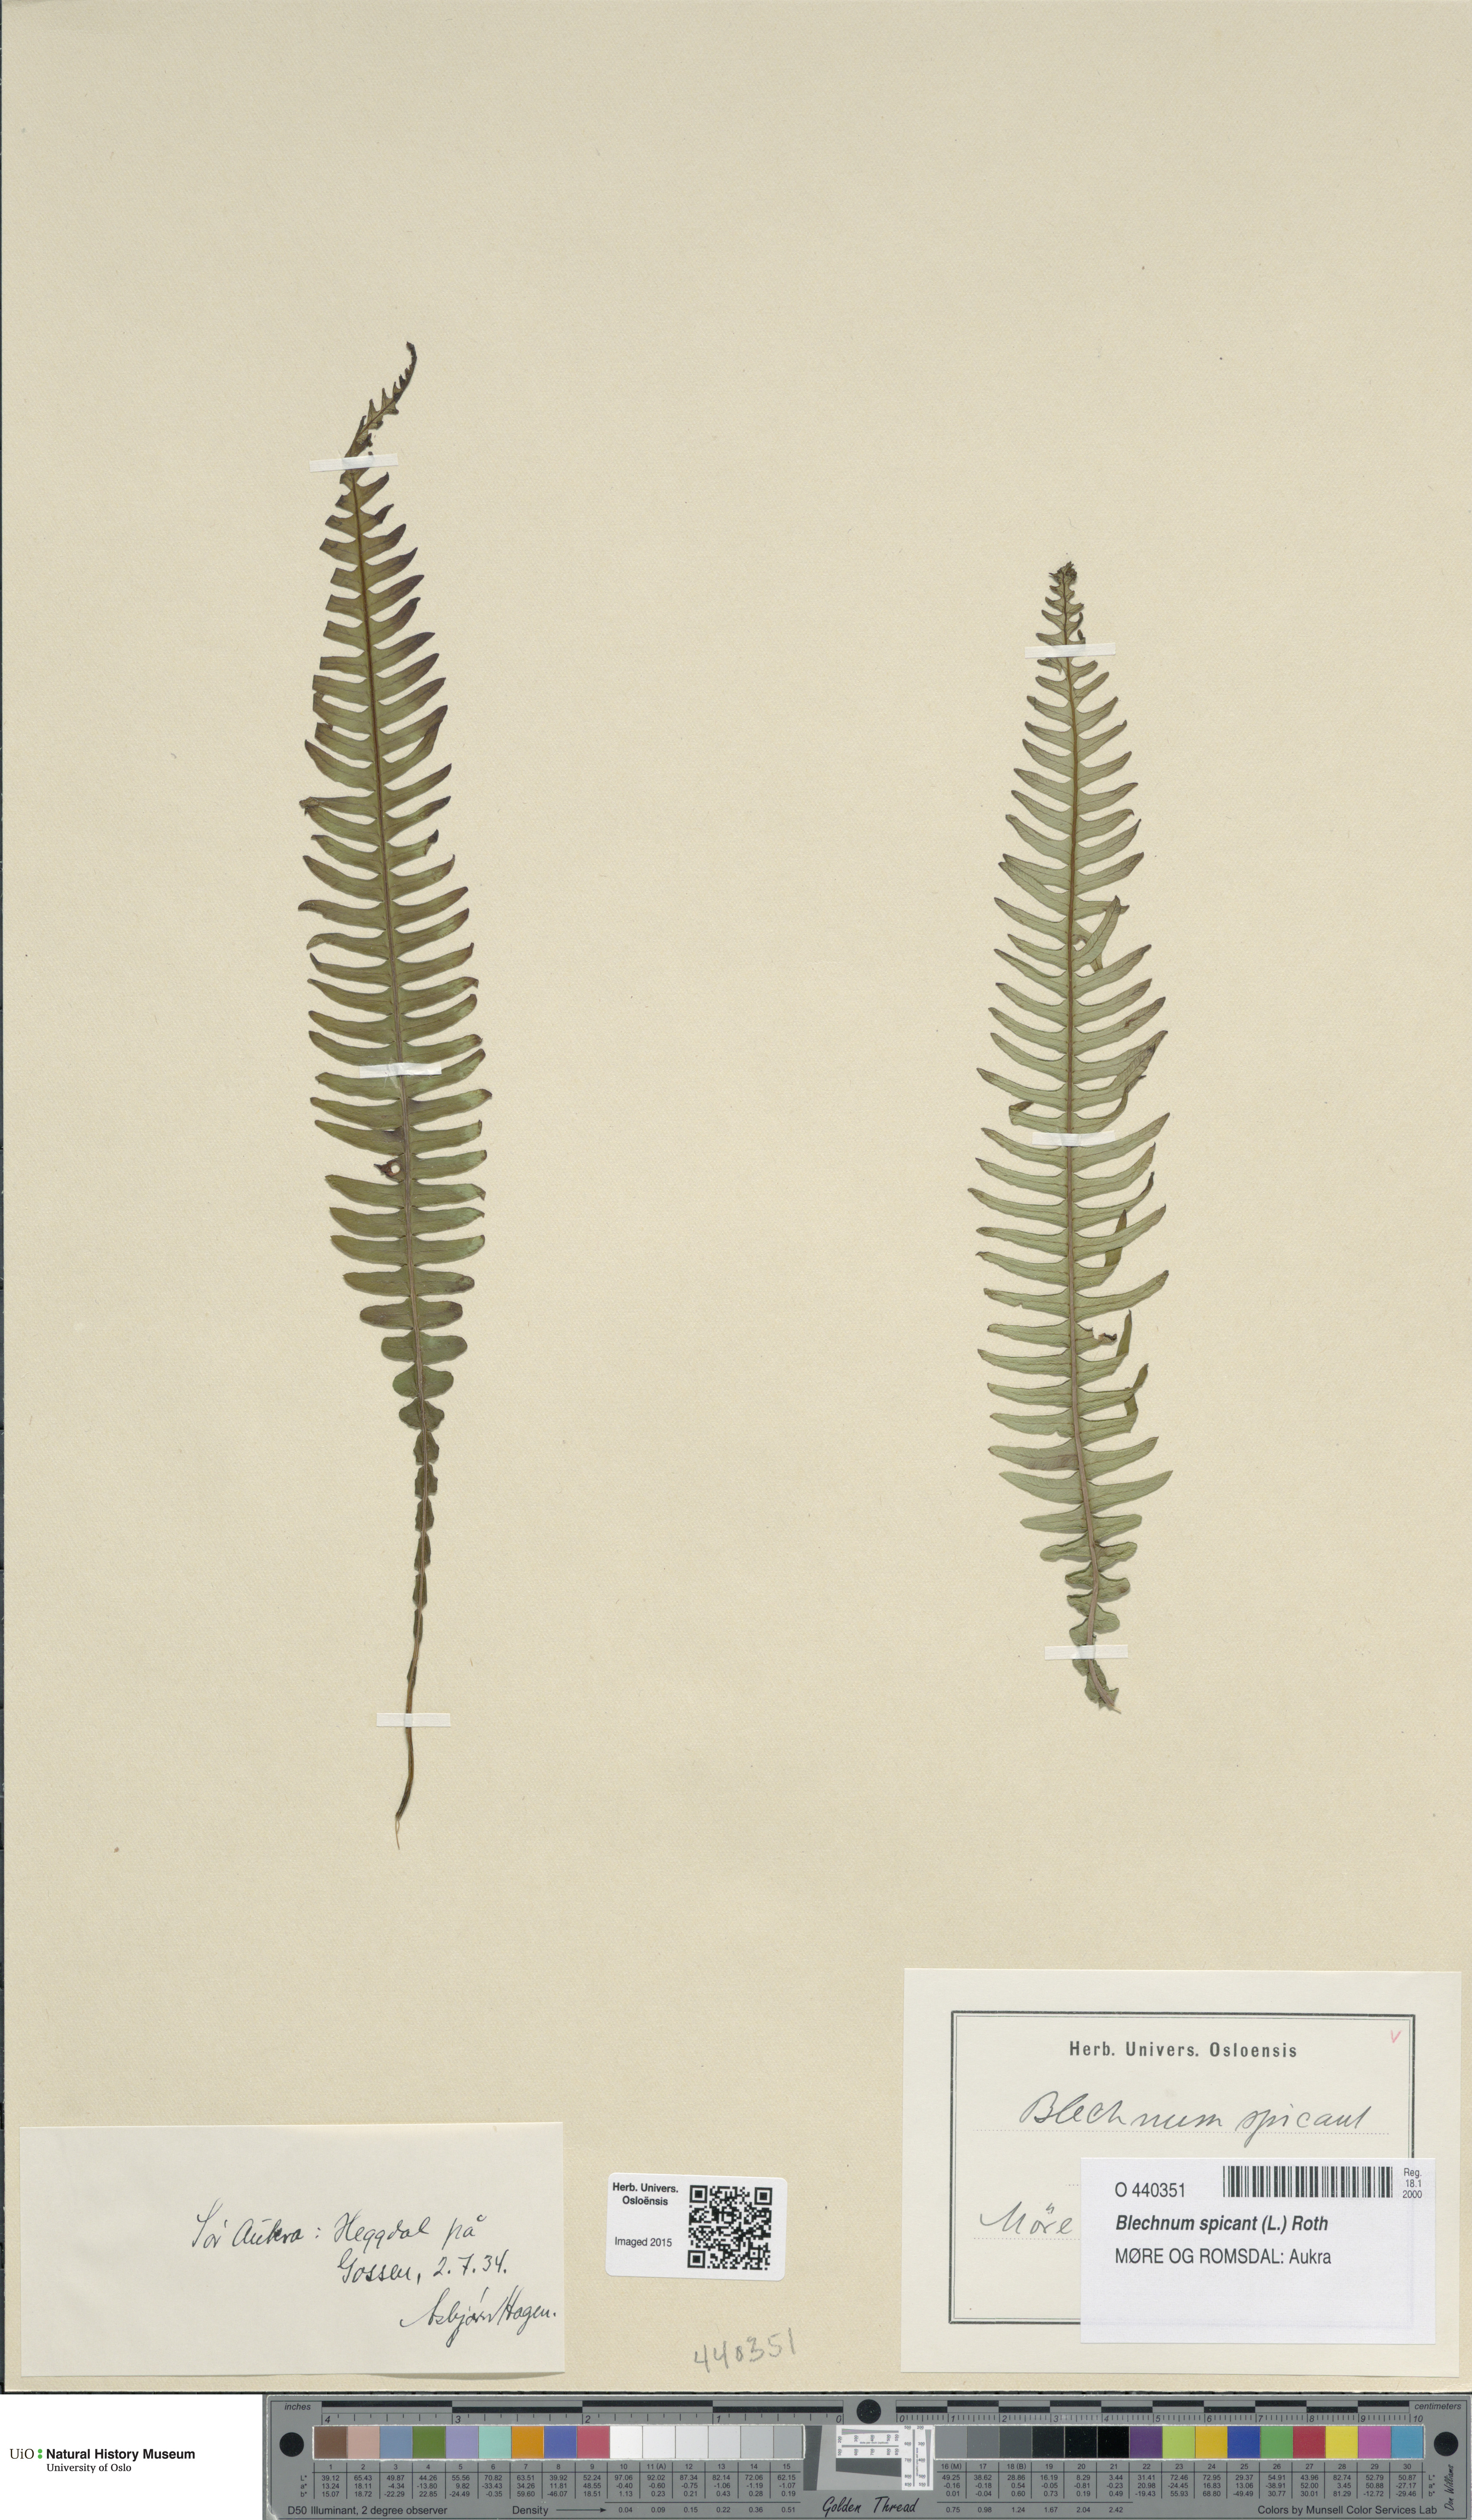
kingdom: Plantae
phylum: Tracheophyta
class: Polypodiopsida
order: Polypodiales
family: Blechnaceae
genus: Struthiopteris
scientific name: Struthiopteris spicant
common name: Deer fern
